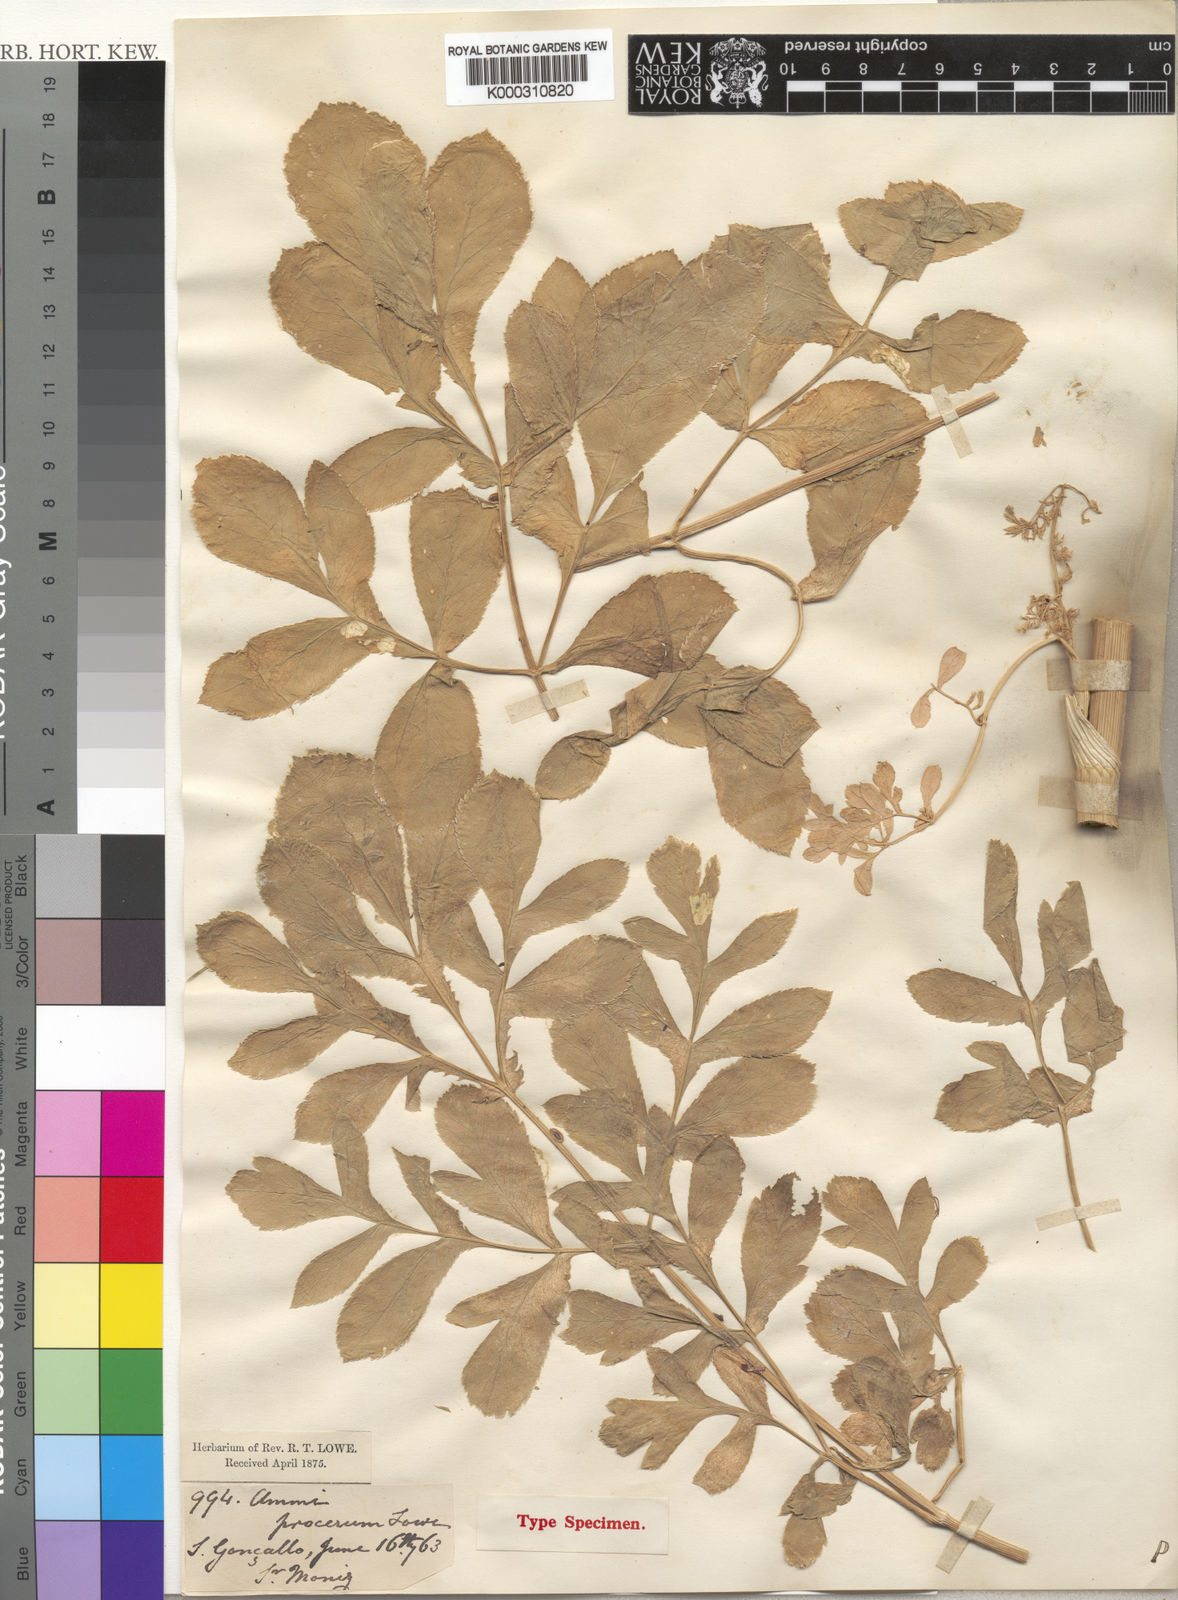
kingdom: Plantae
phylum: Tracheophyta
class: Magnoliopsida
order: Apiales
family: Apiaceae
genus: Ammi
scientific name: Ammi procerum
